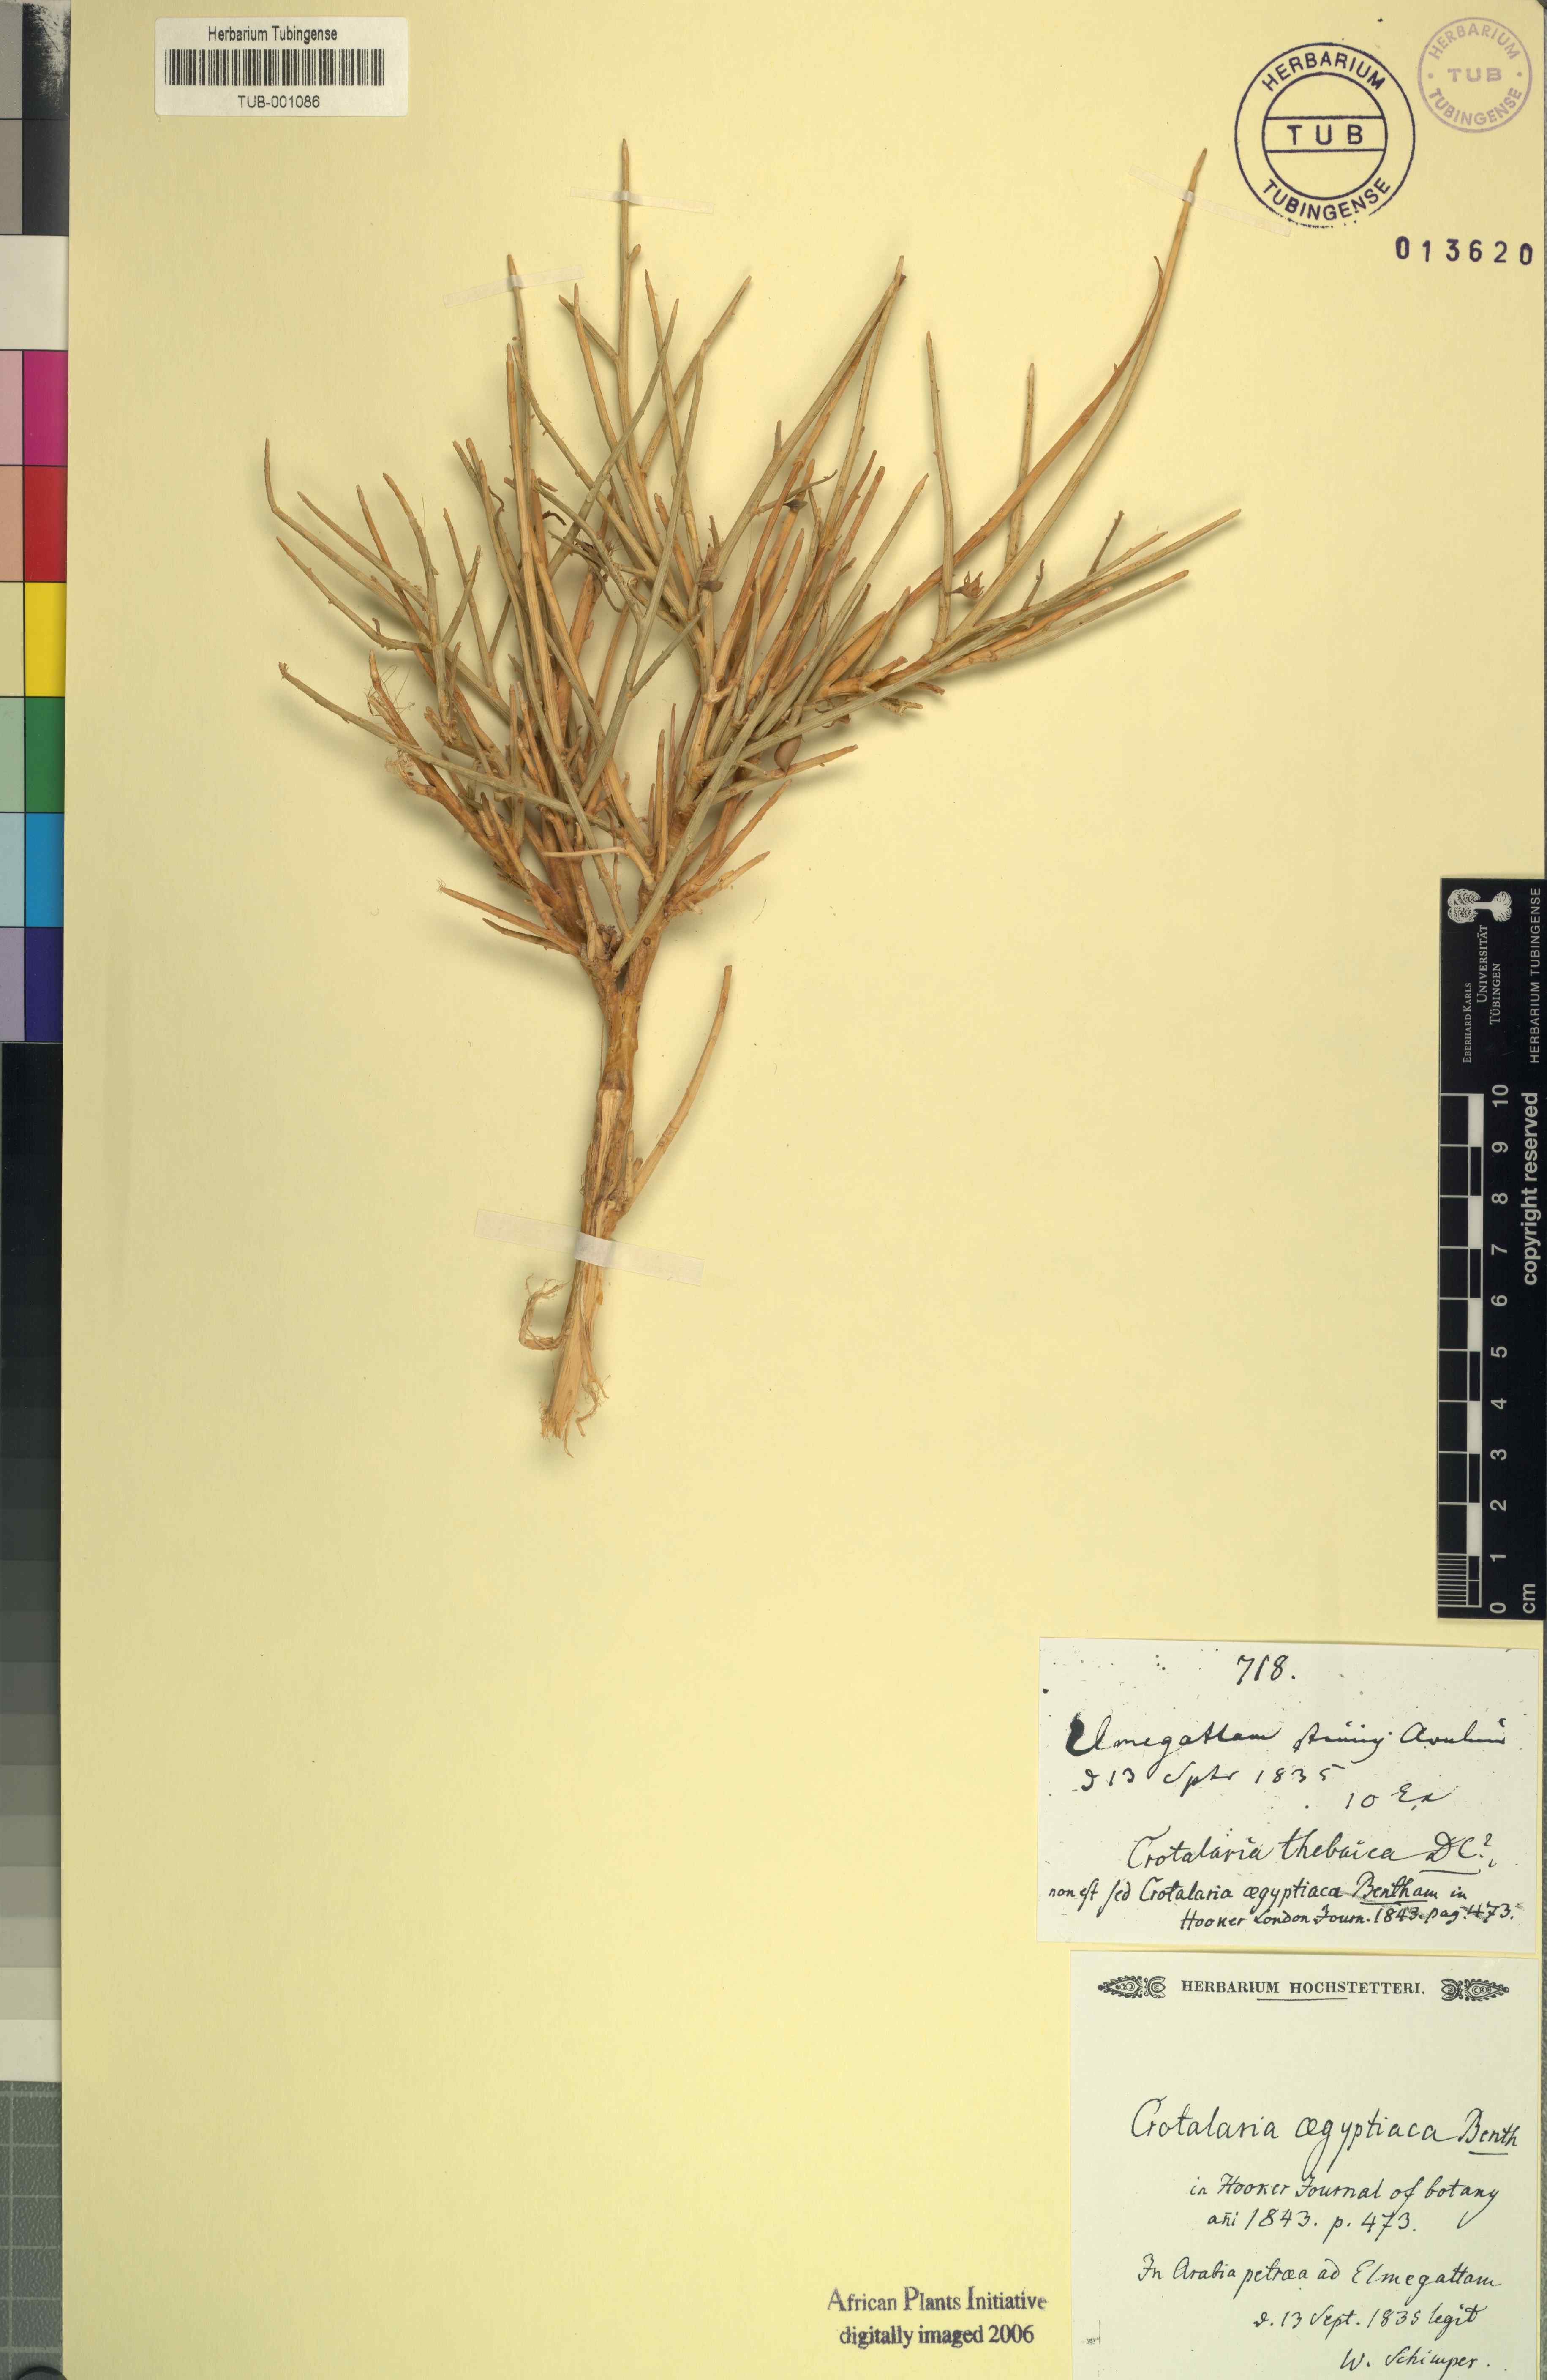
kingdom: Plantae
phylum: Tracheophyta
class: Magnoliopsida
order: Fabales
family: Fabaceae
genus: Crotalaria
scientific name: Crotalaria aegyptiaca
